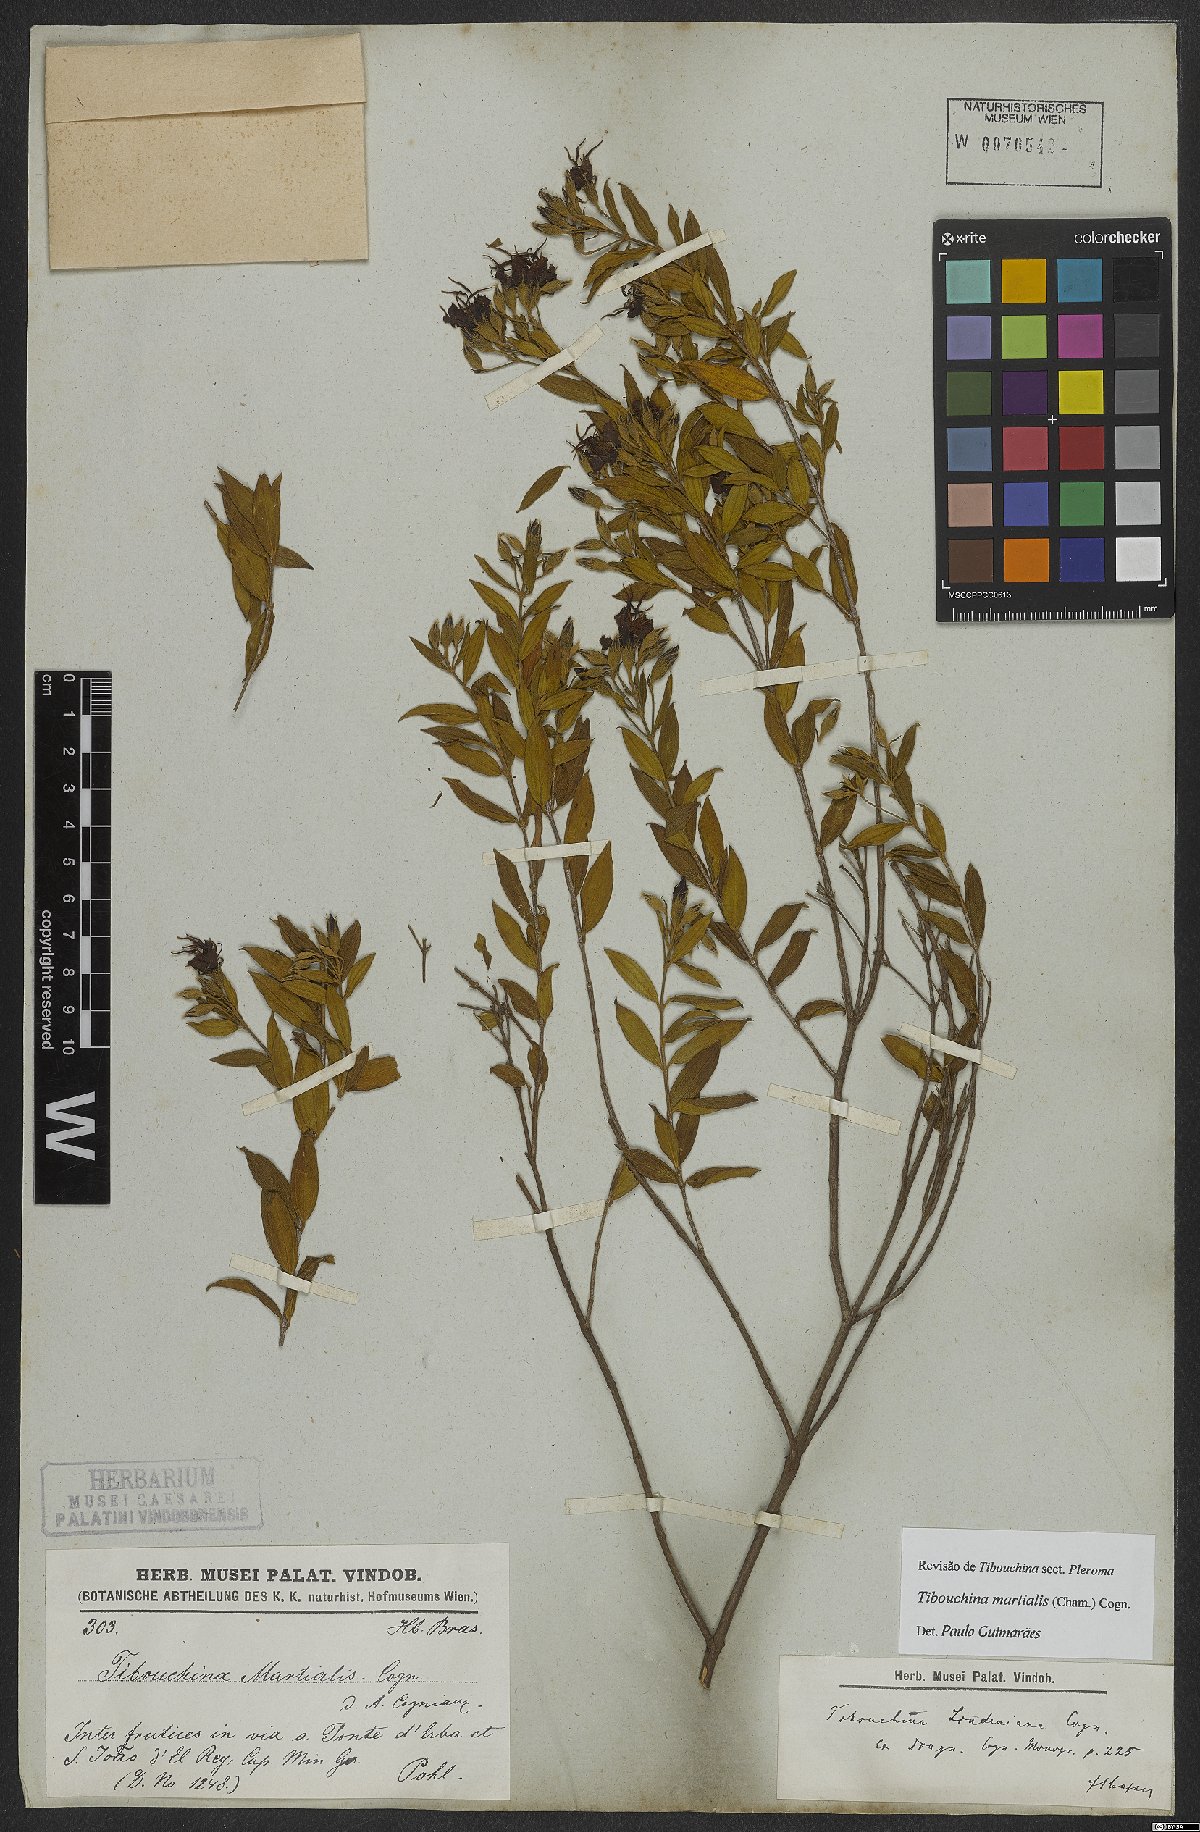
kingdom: Plantae
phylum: Tracheophyta
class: Magnoliopsida
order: Myrtales
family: Melastomataceae
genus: Pleroma
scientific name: Pleroma martiale
